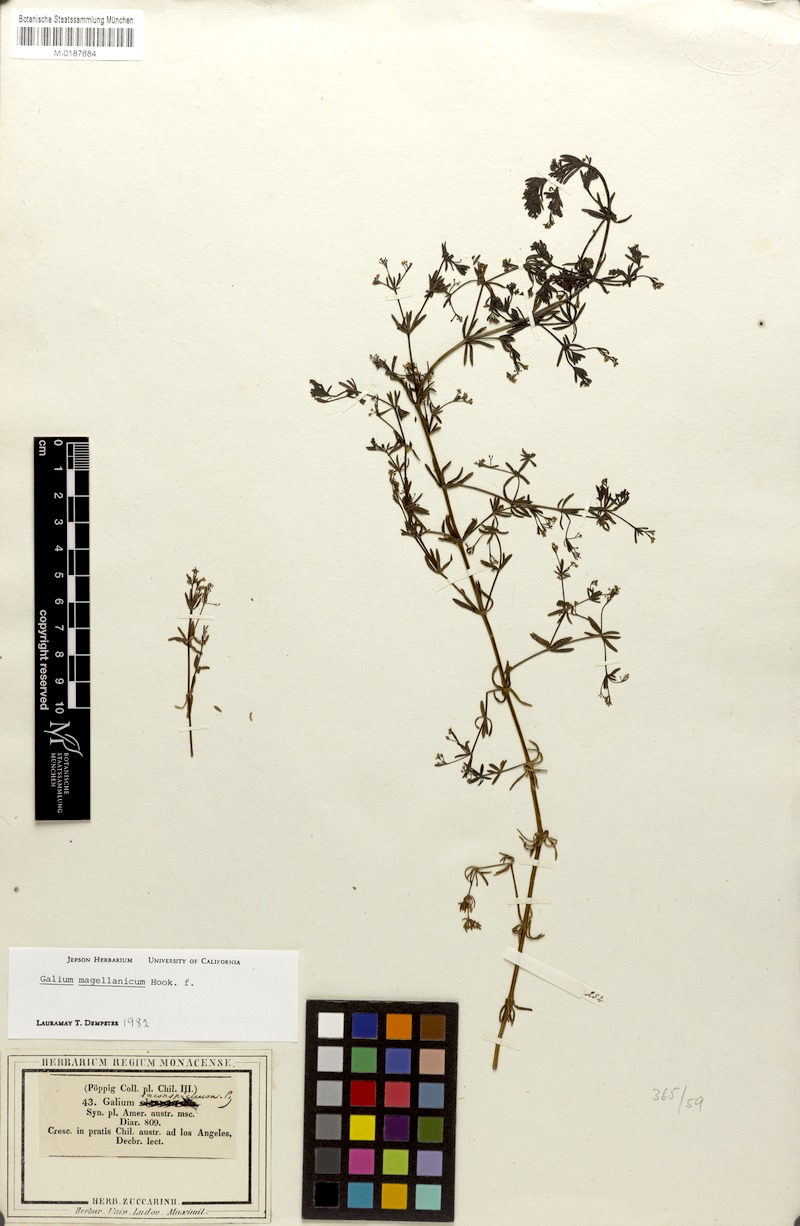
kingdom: Plantae
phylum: Tracheophyta
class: Magnoliopsida
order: Gentianales
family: Rubiaceae
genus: Galium
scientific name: Galium magellanicum
